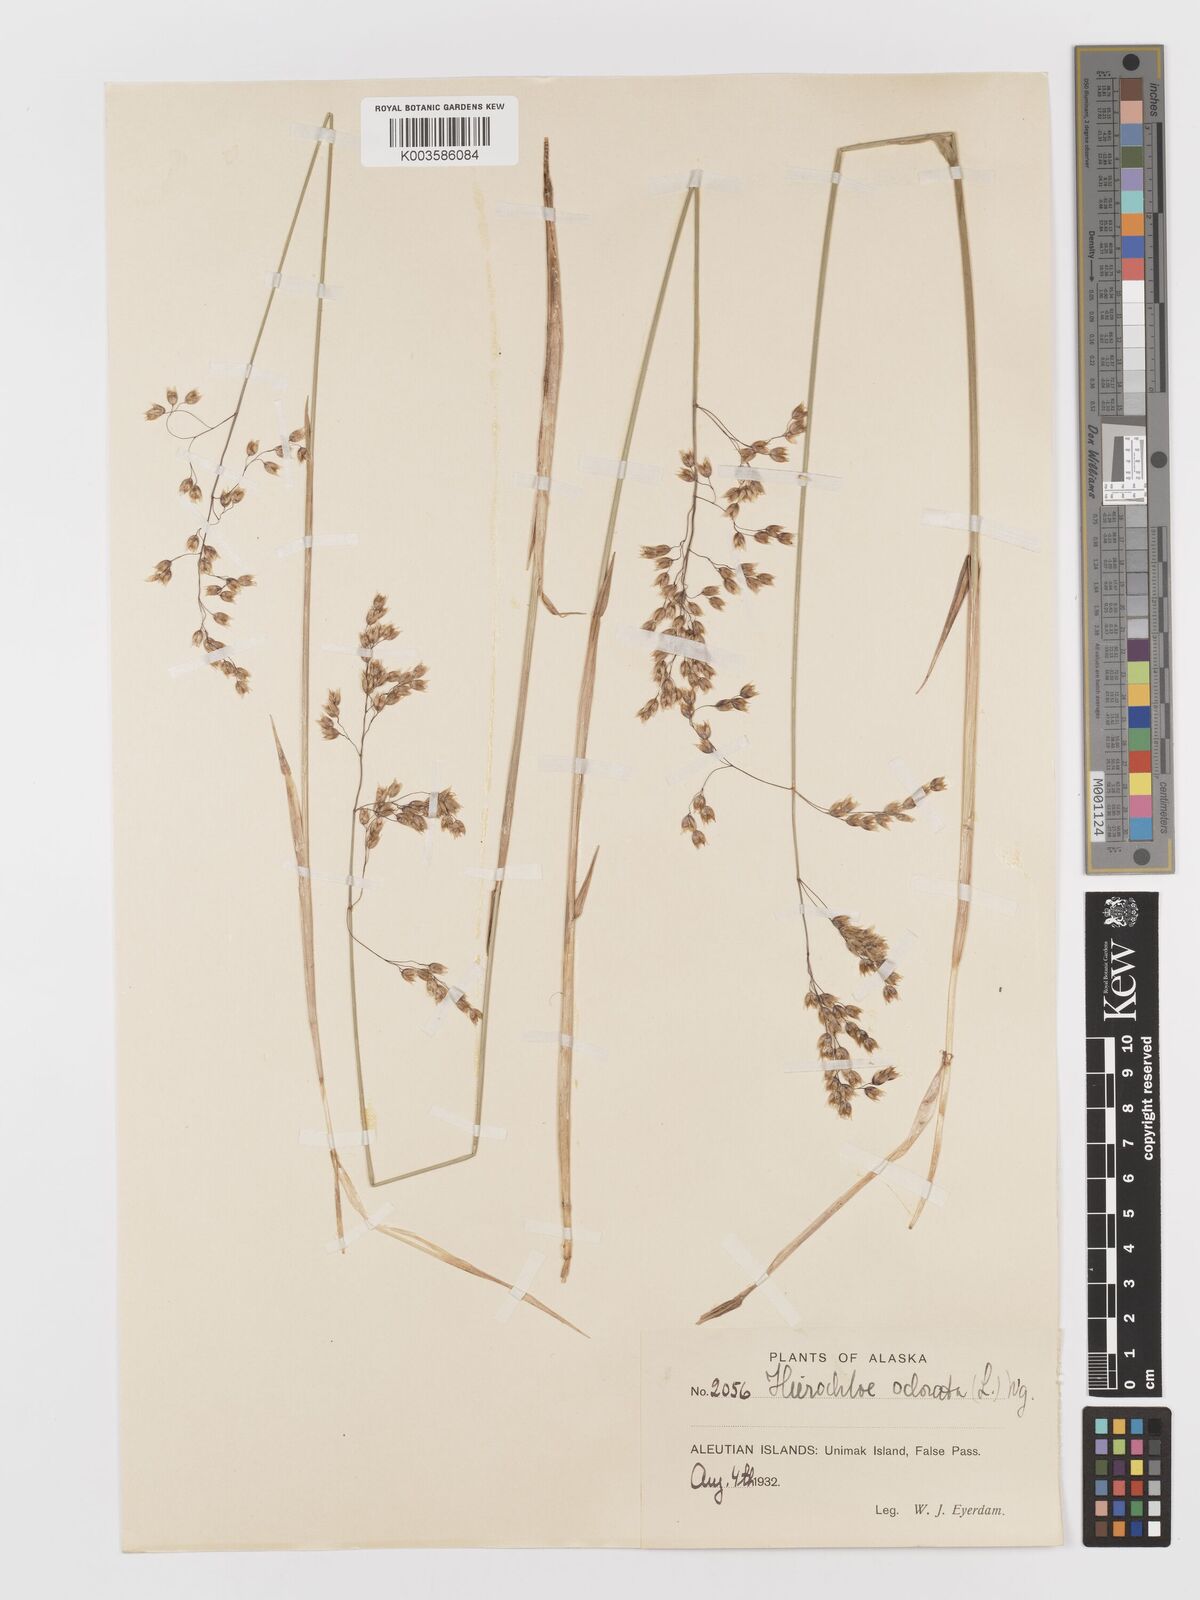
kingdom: Plantae
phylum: Tracheophyta
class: Liliopsida
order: Poales
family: Poaceae
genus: Anthoxanthum
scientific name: Anthoxanthum nitens
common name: Holy grass
